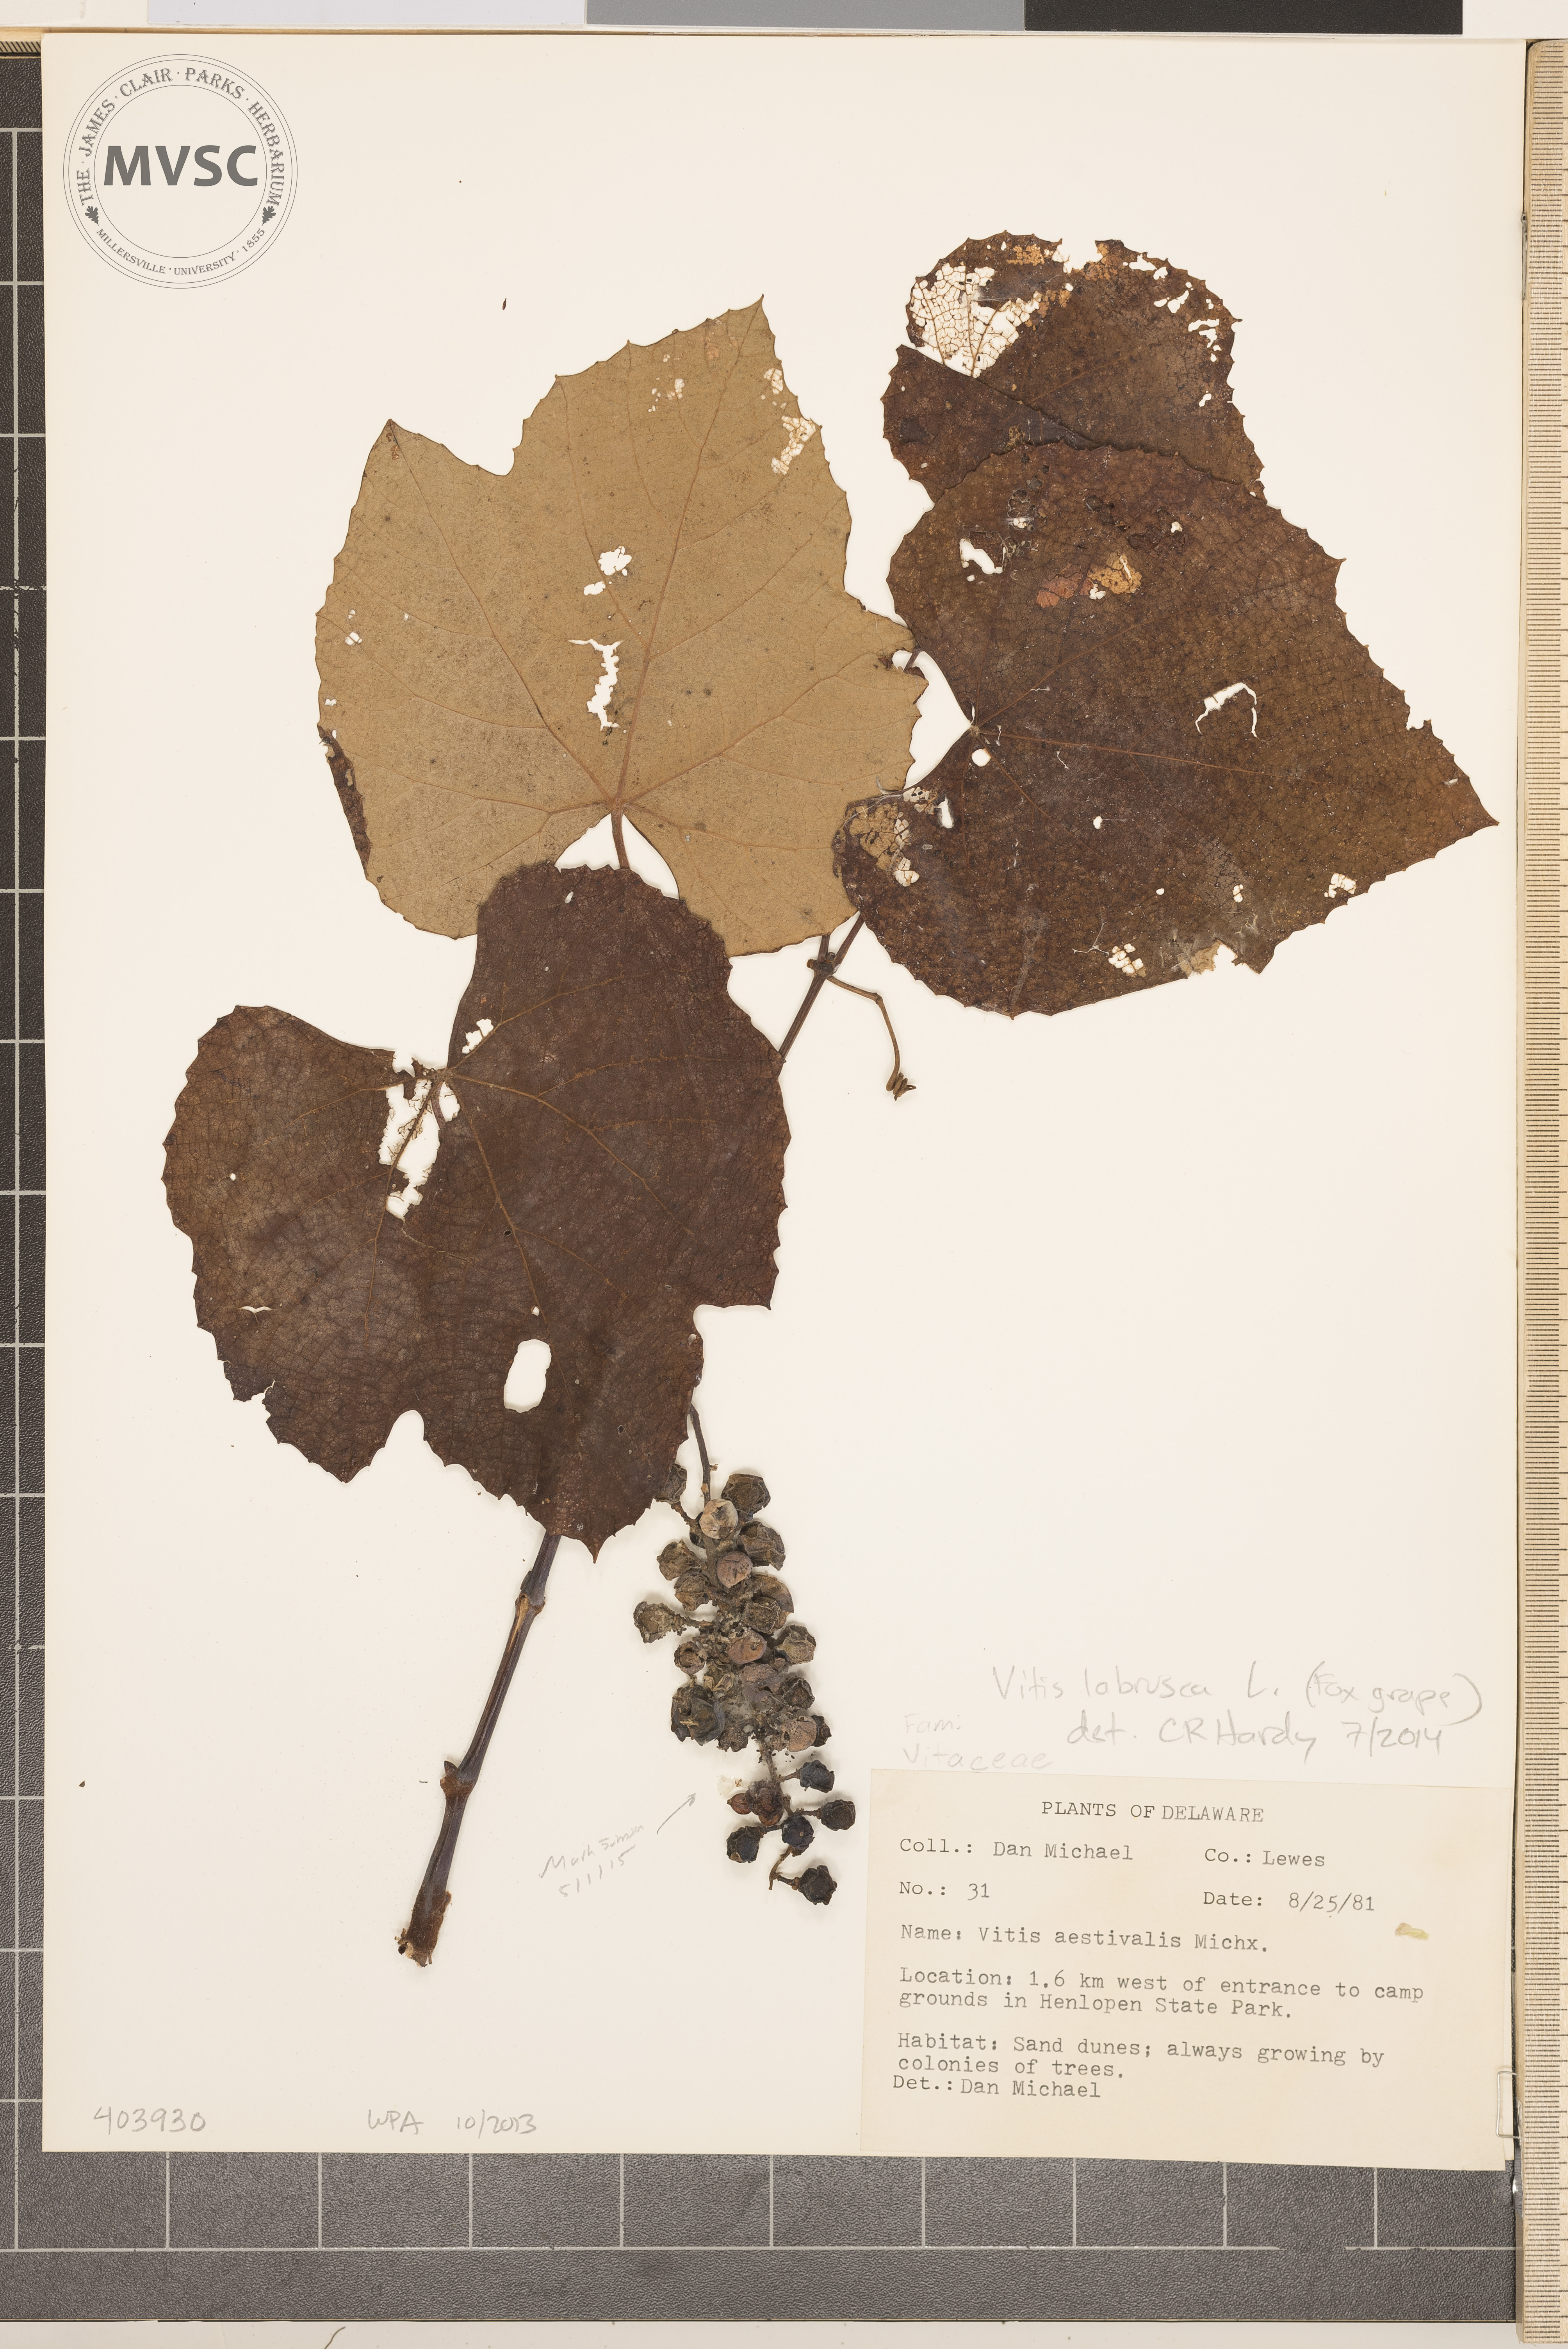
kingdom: Plantae
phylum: Tracheophyta
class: Magnoliopsida
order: Vitales
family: Vitaceae
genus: Vitis
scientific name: Vitis labrusca
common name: Fox Grape
